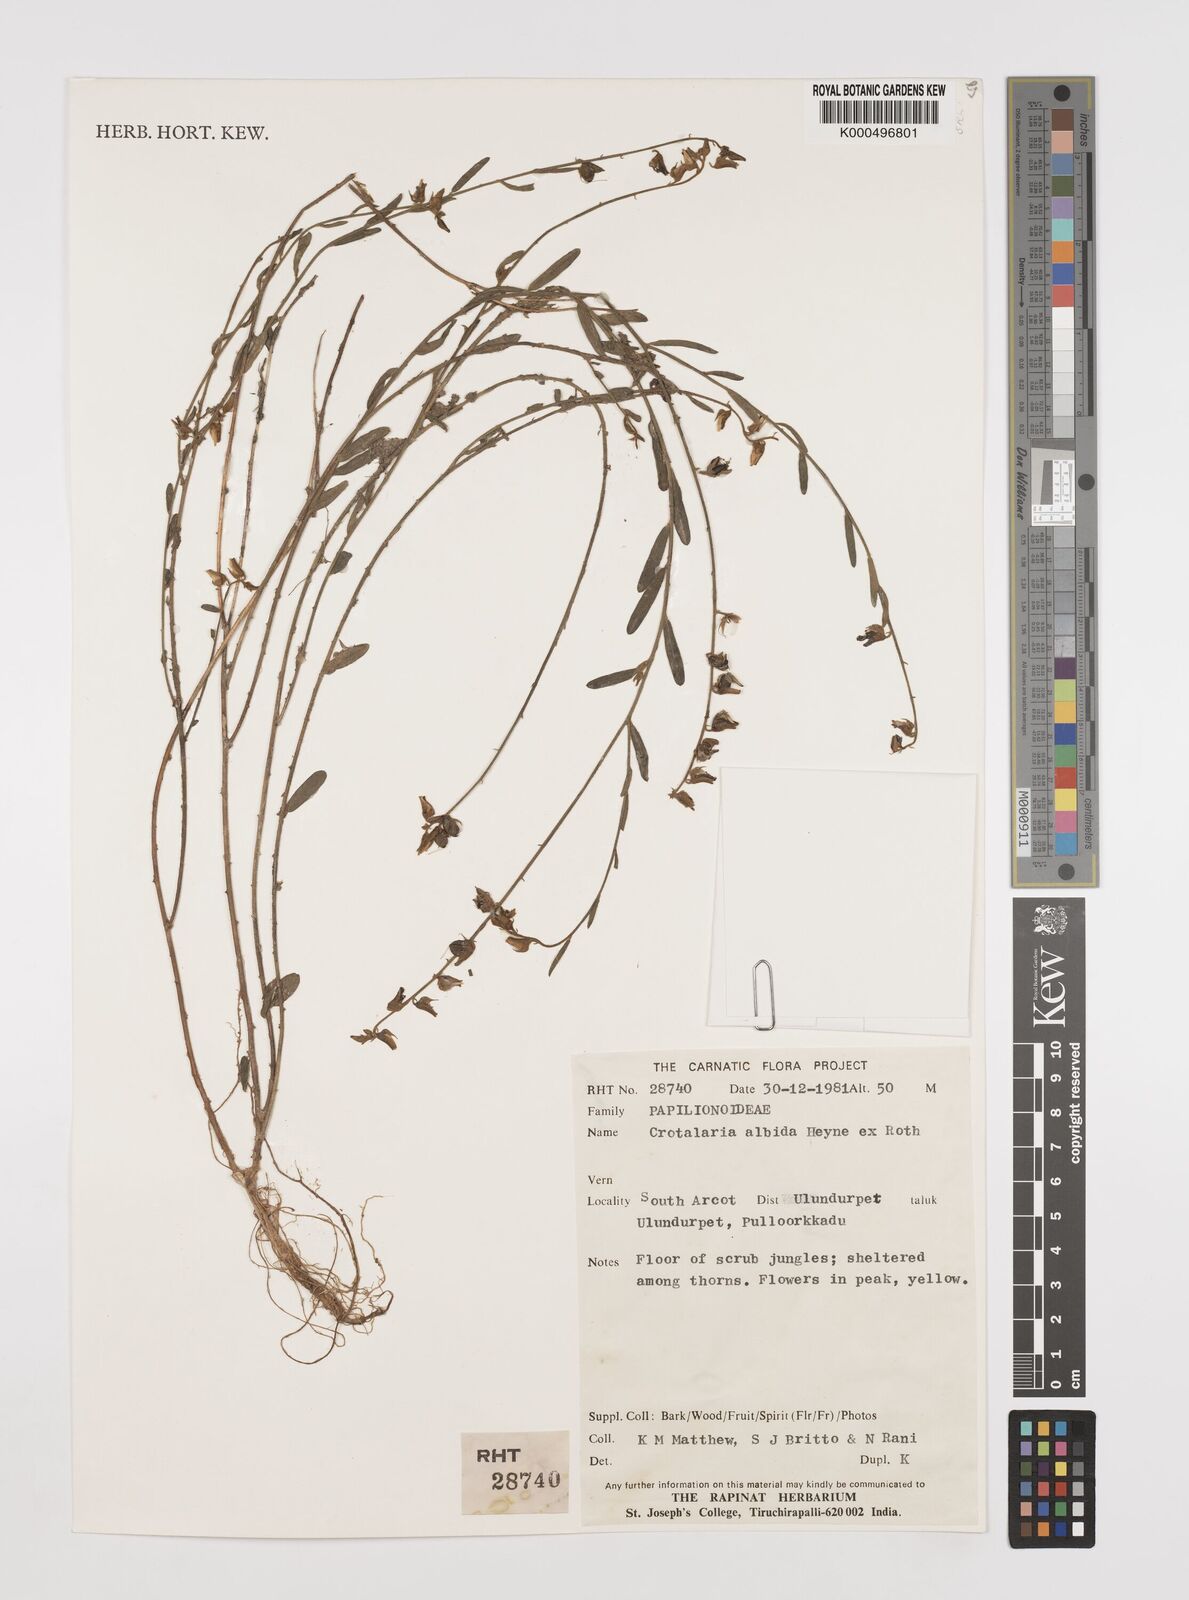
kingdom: Plantae
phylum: Tracheophyta
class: Magnoliopsida
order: Fabales
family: Fabaceae
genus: Crotalaria
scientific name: Crotalaria albida
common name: Taiwan crotalaria
